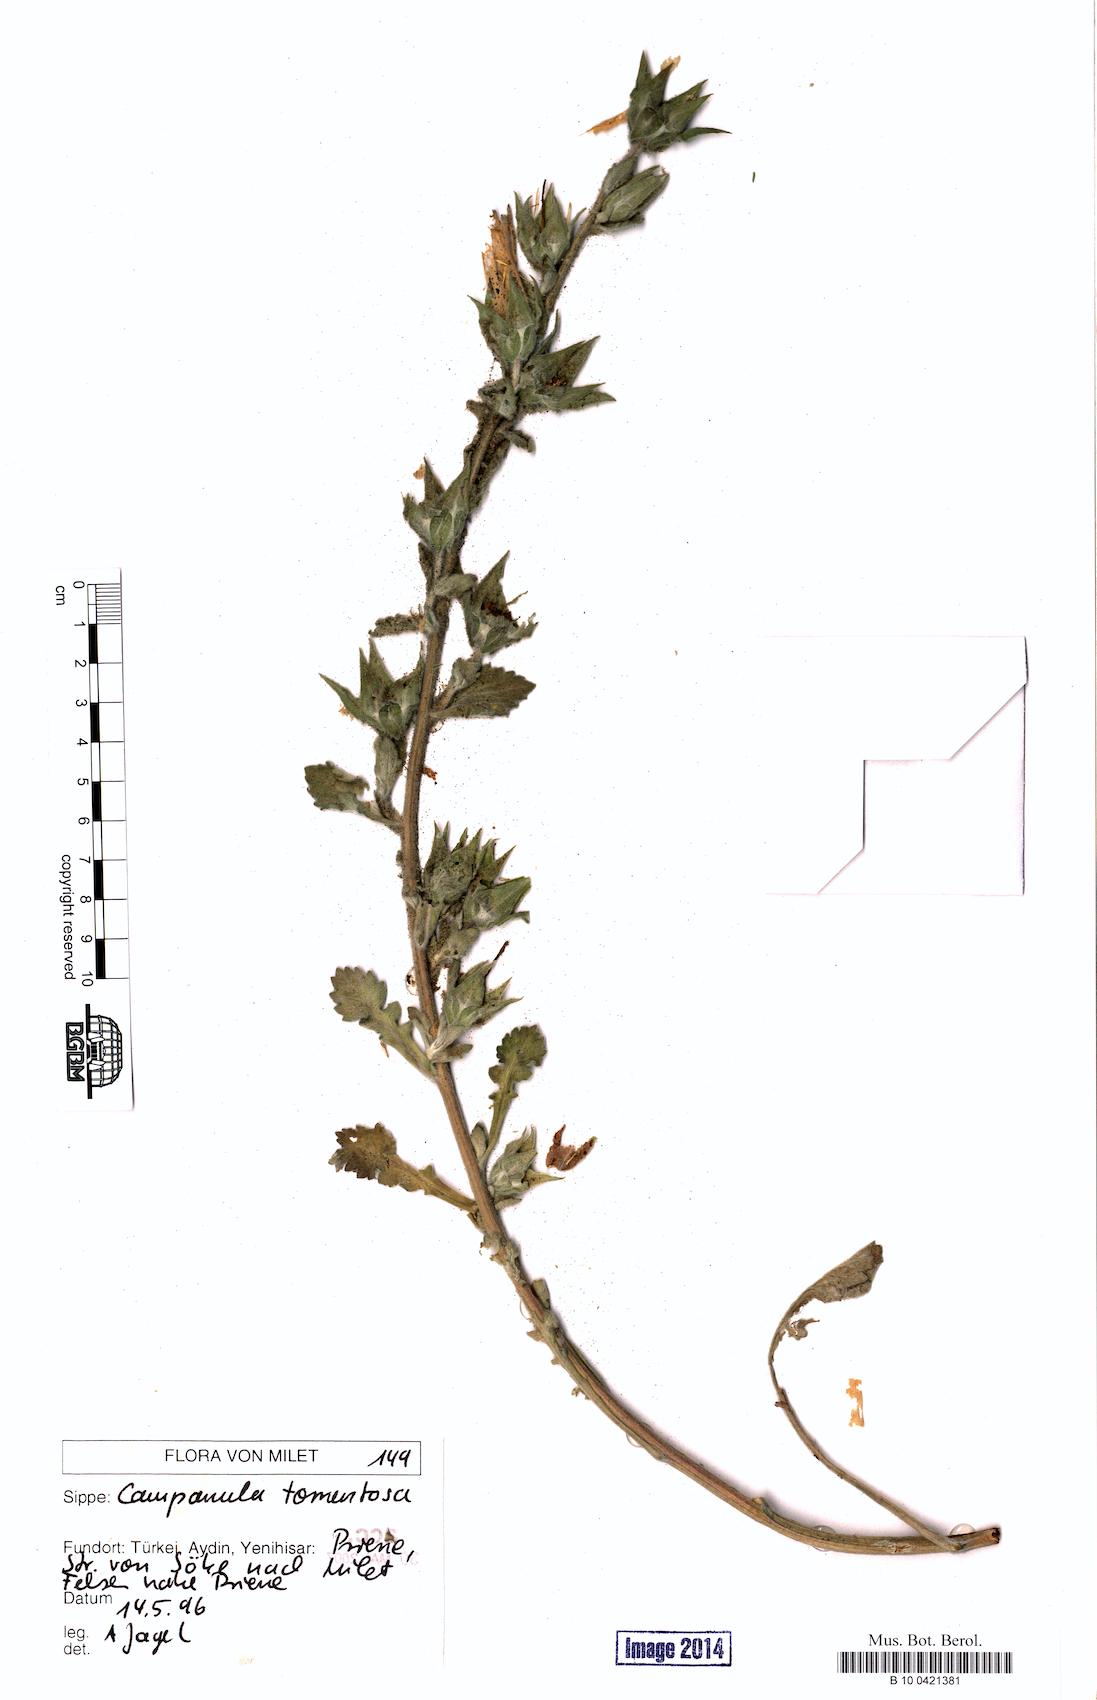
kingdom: Plantae
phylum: Tracheophyta
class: Magnoliopsida
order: Asterales
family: Campanulaceae
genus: Campanula
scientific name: Campanula tomentosa
